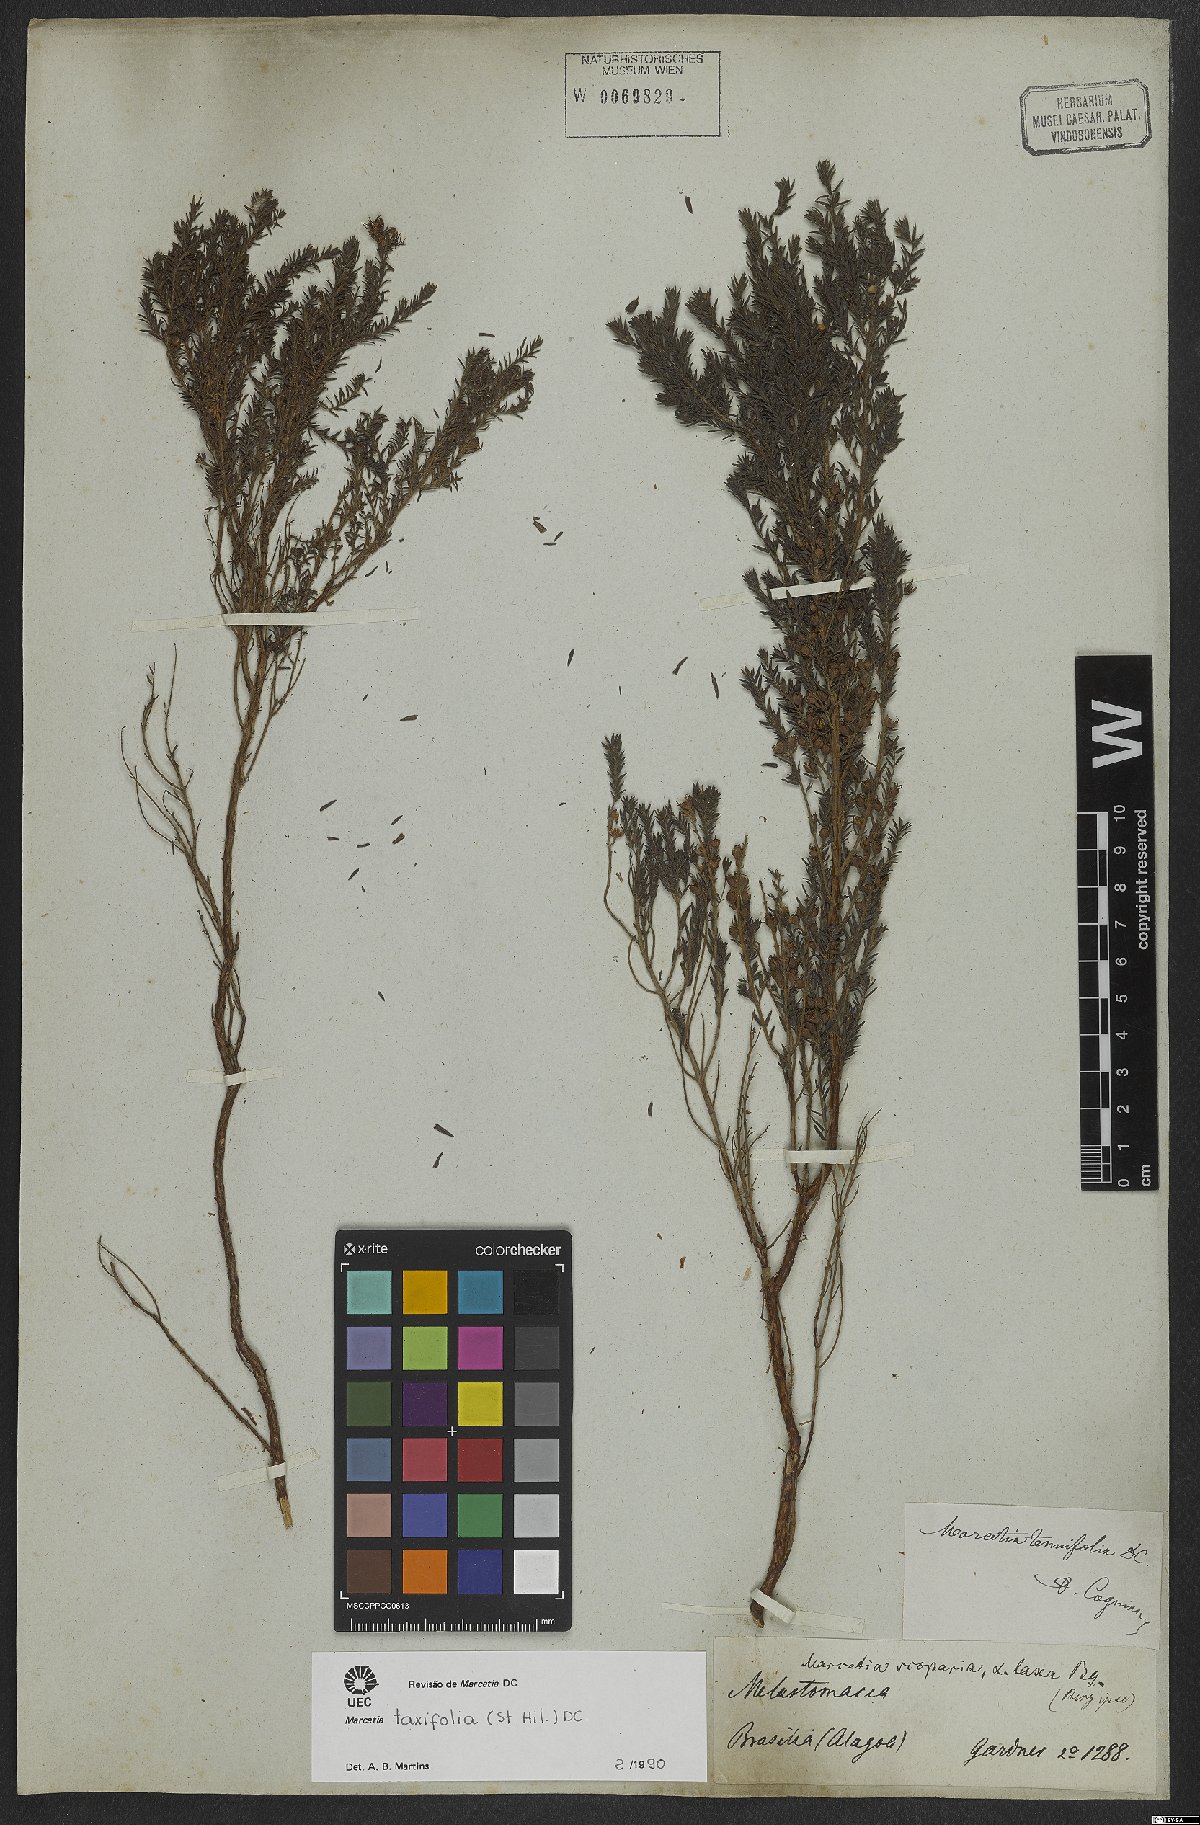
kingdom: Plantae
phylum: Tracheophyta
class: Magnoliopsida
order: Myrtales
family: Melastomataceae
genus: Marcetia
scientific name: Marcetia taxifolia
